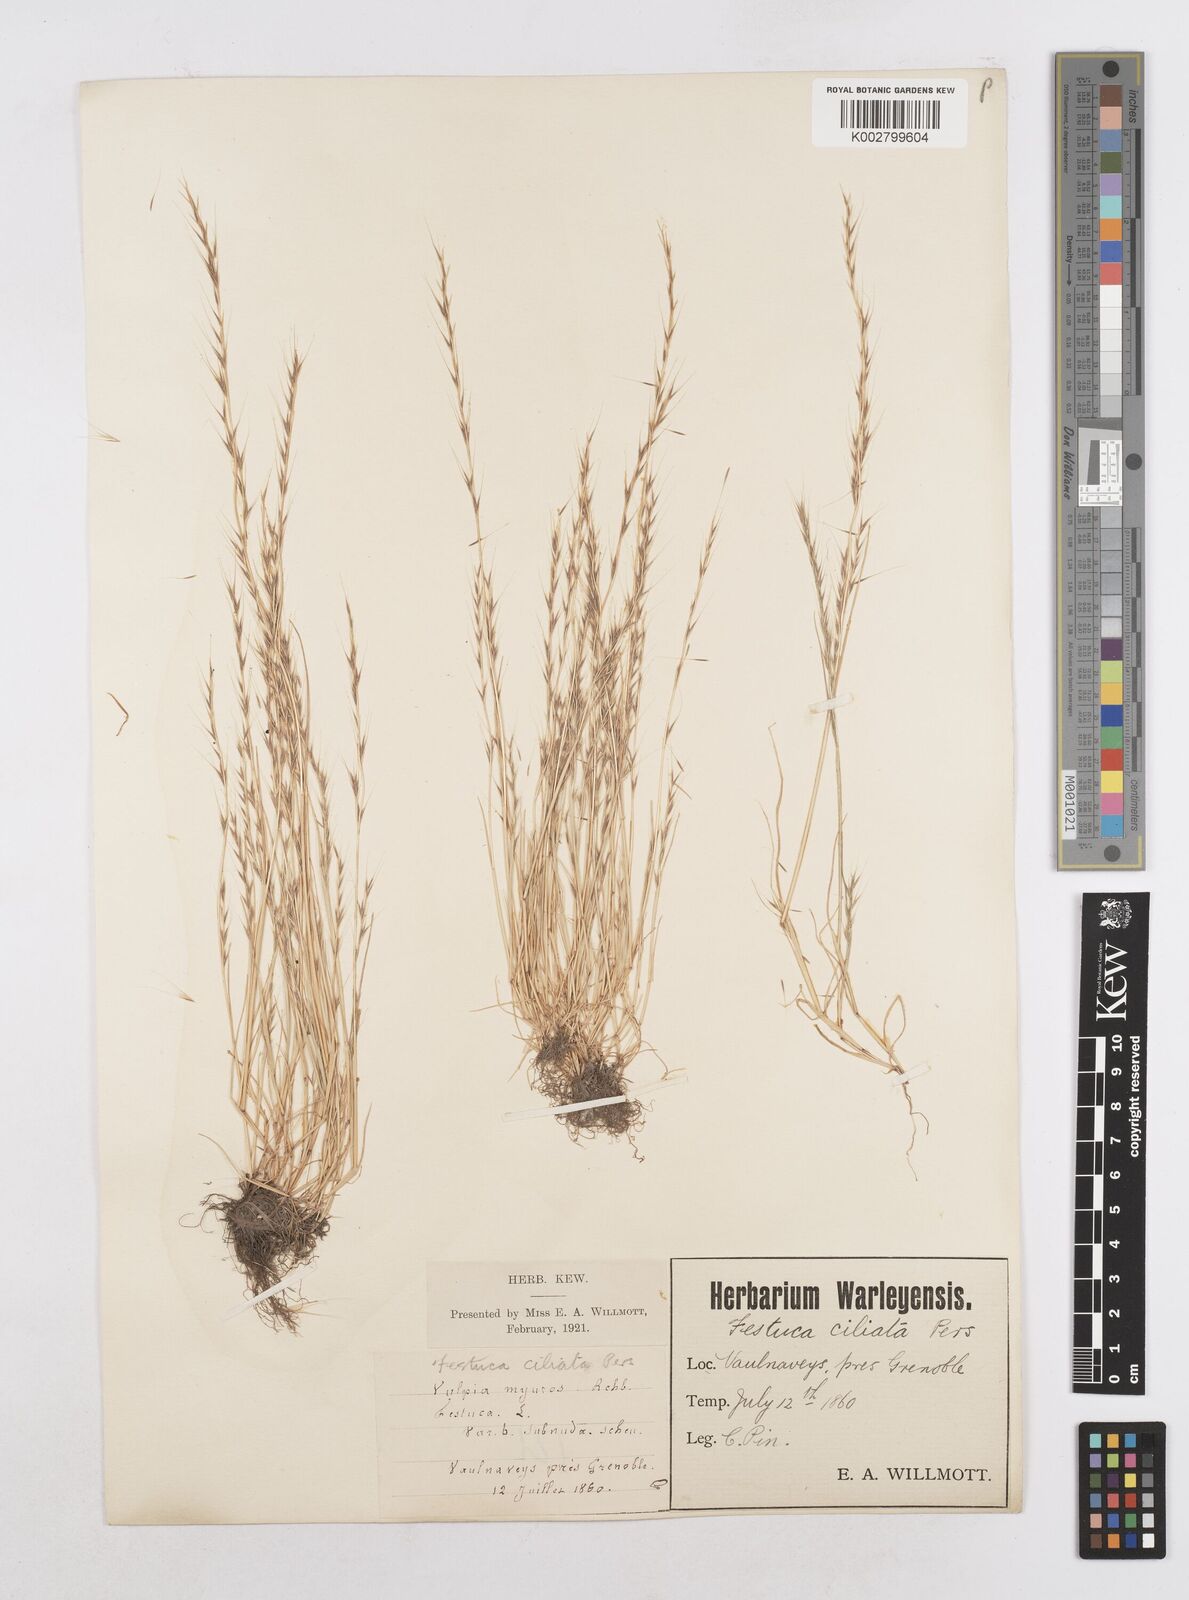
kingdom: Plantae
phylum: Tracheophyta
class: Liliopsida
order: Poales
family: Poaceae
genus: Festuca
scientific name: Festuca
